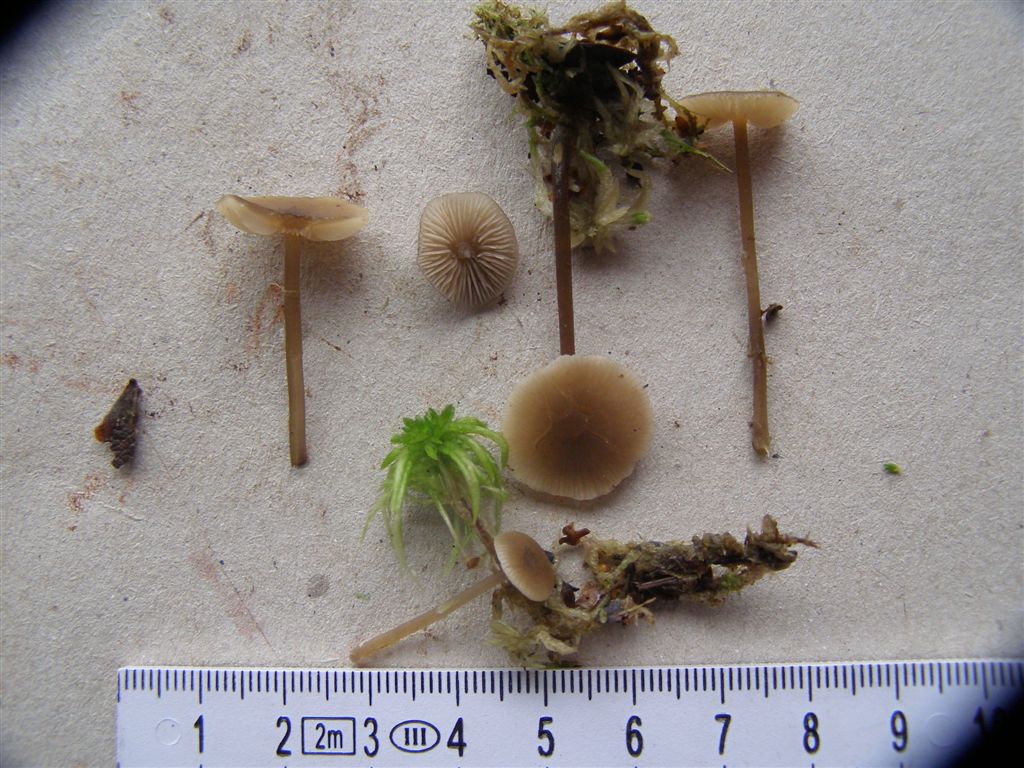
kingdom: Fungi
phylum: Basidiomycota
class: Agaricomycetes
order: Agaricales
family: Lyophyllaceae
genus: Sphagnurus
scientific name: Sphagnurus paluster
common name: tørvemos-gråblad
